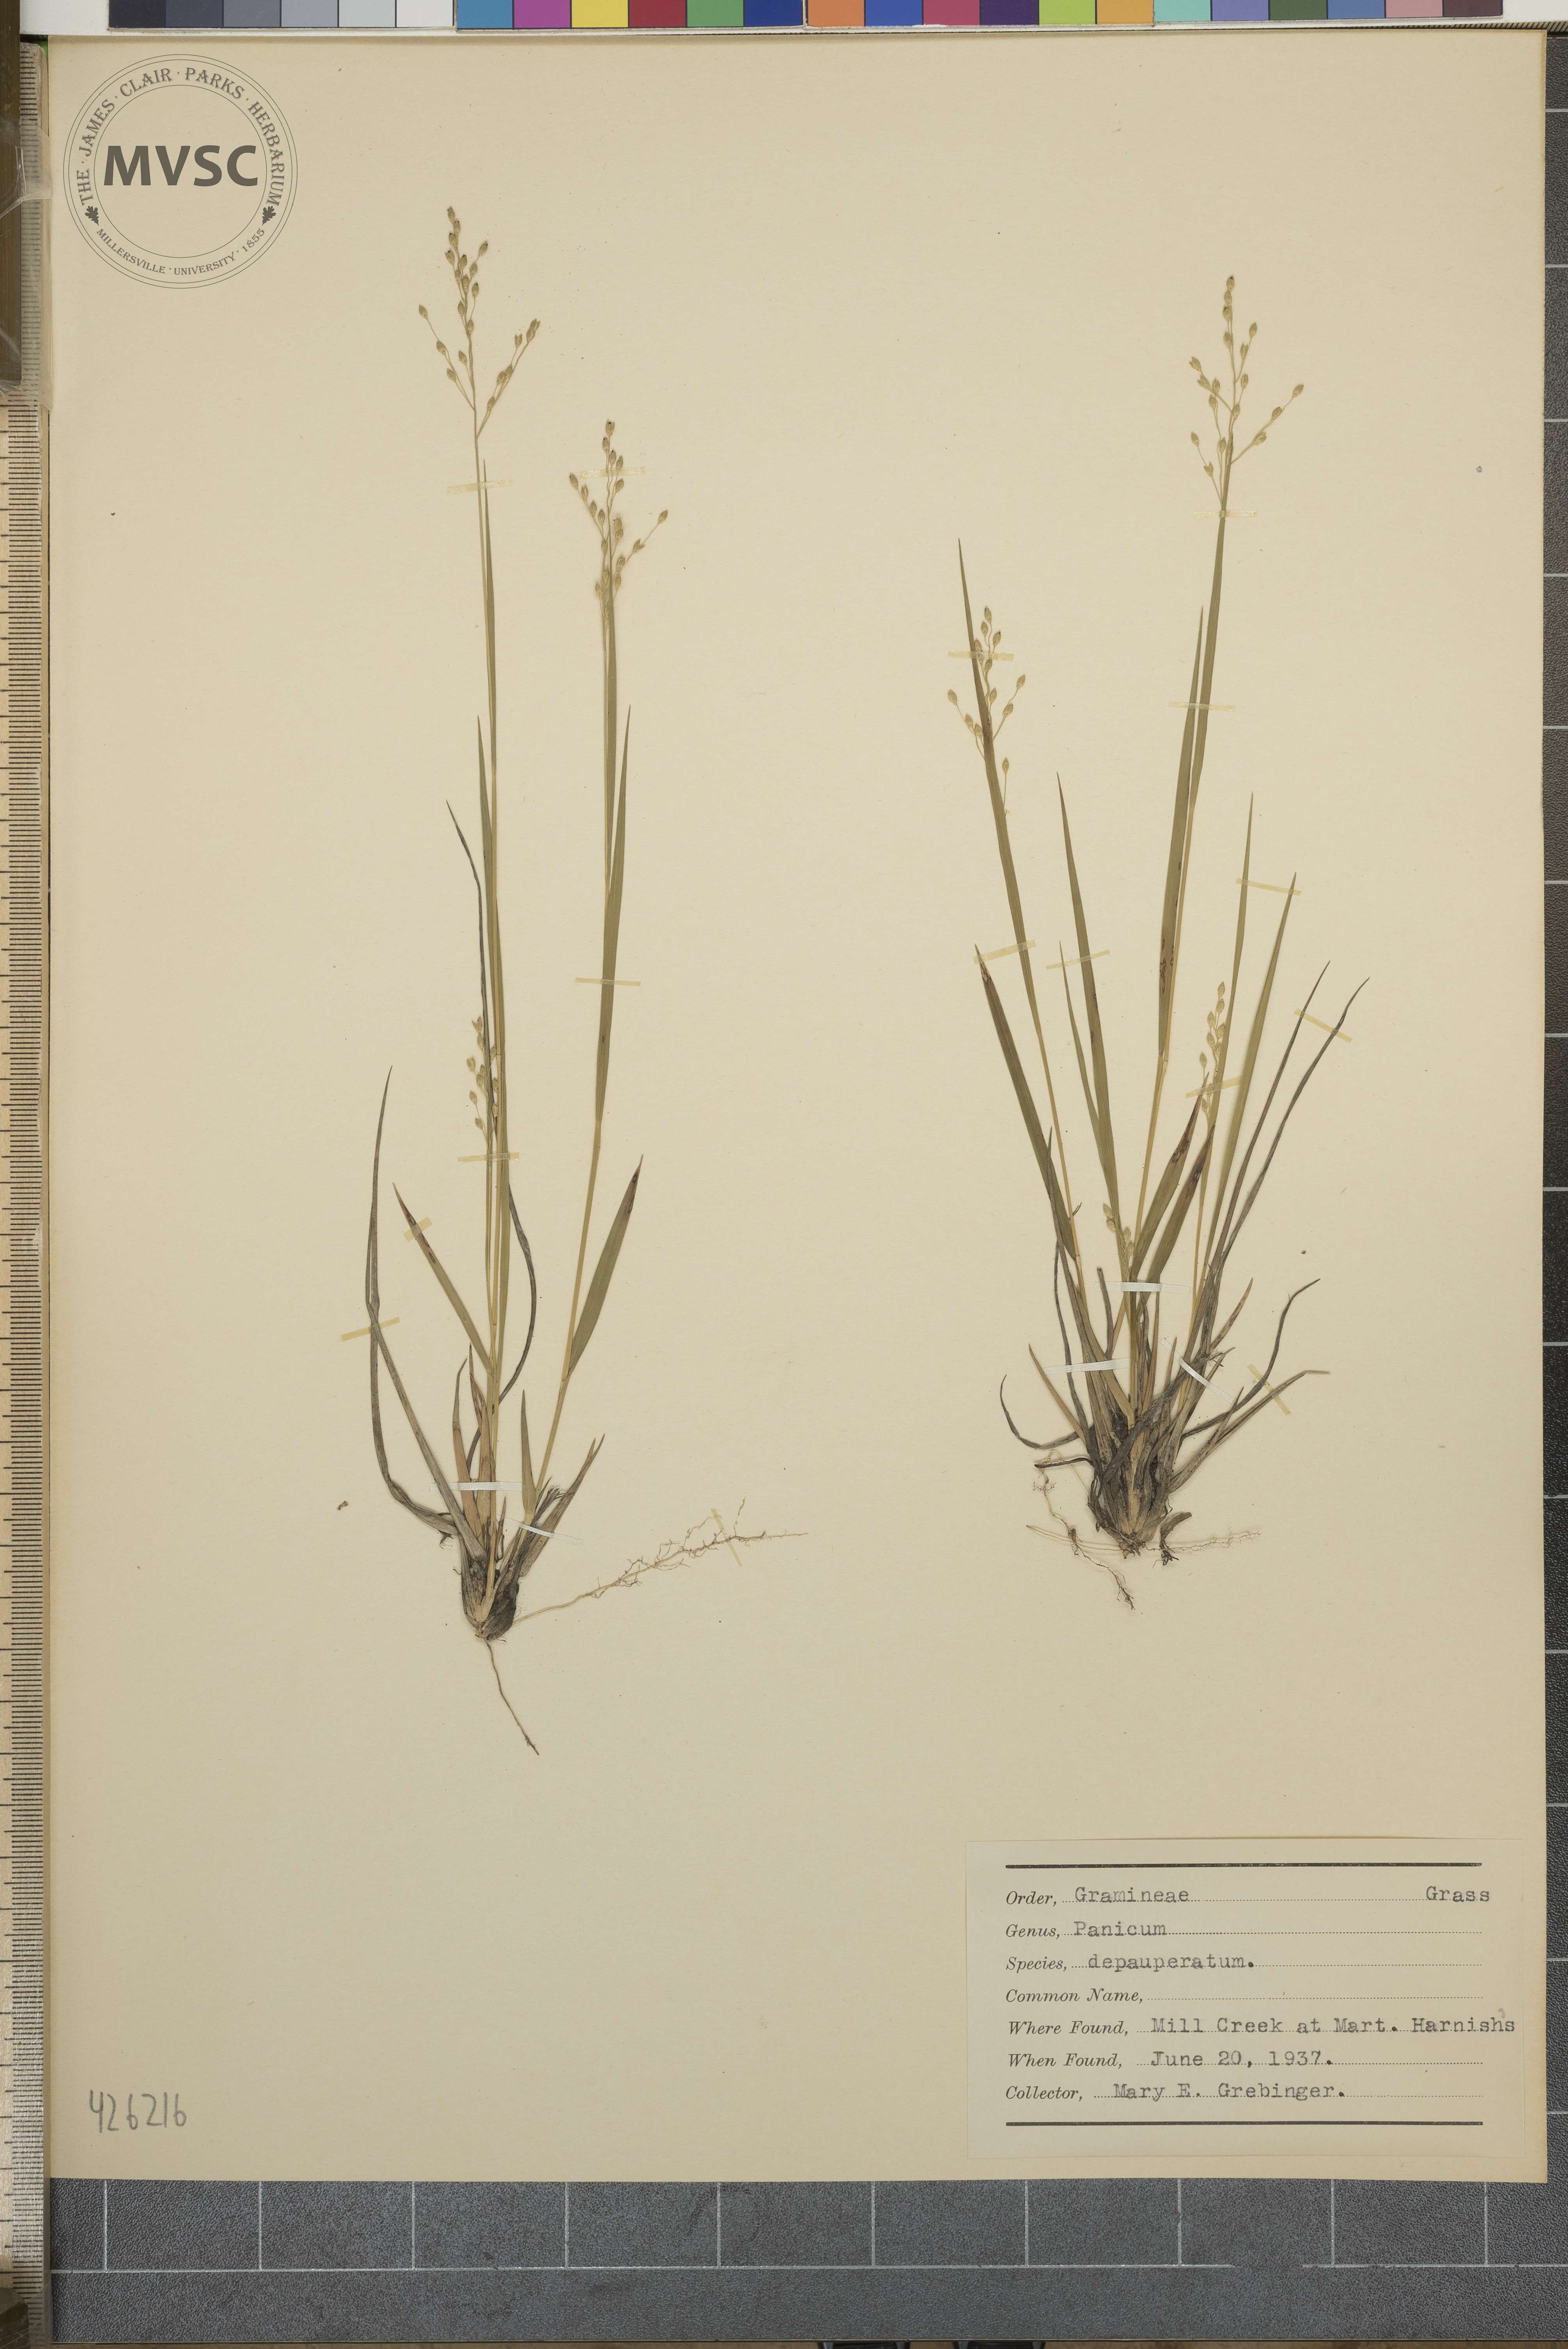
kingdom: Plantae
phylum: Tracheophyta
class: Liliopsida
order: Poales
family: Poaceae
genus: Dichanthelium
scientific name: Dichanthelium depauperatum
